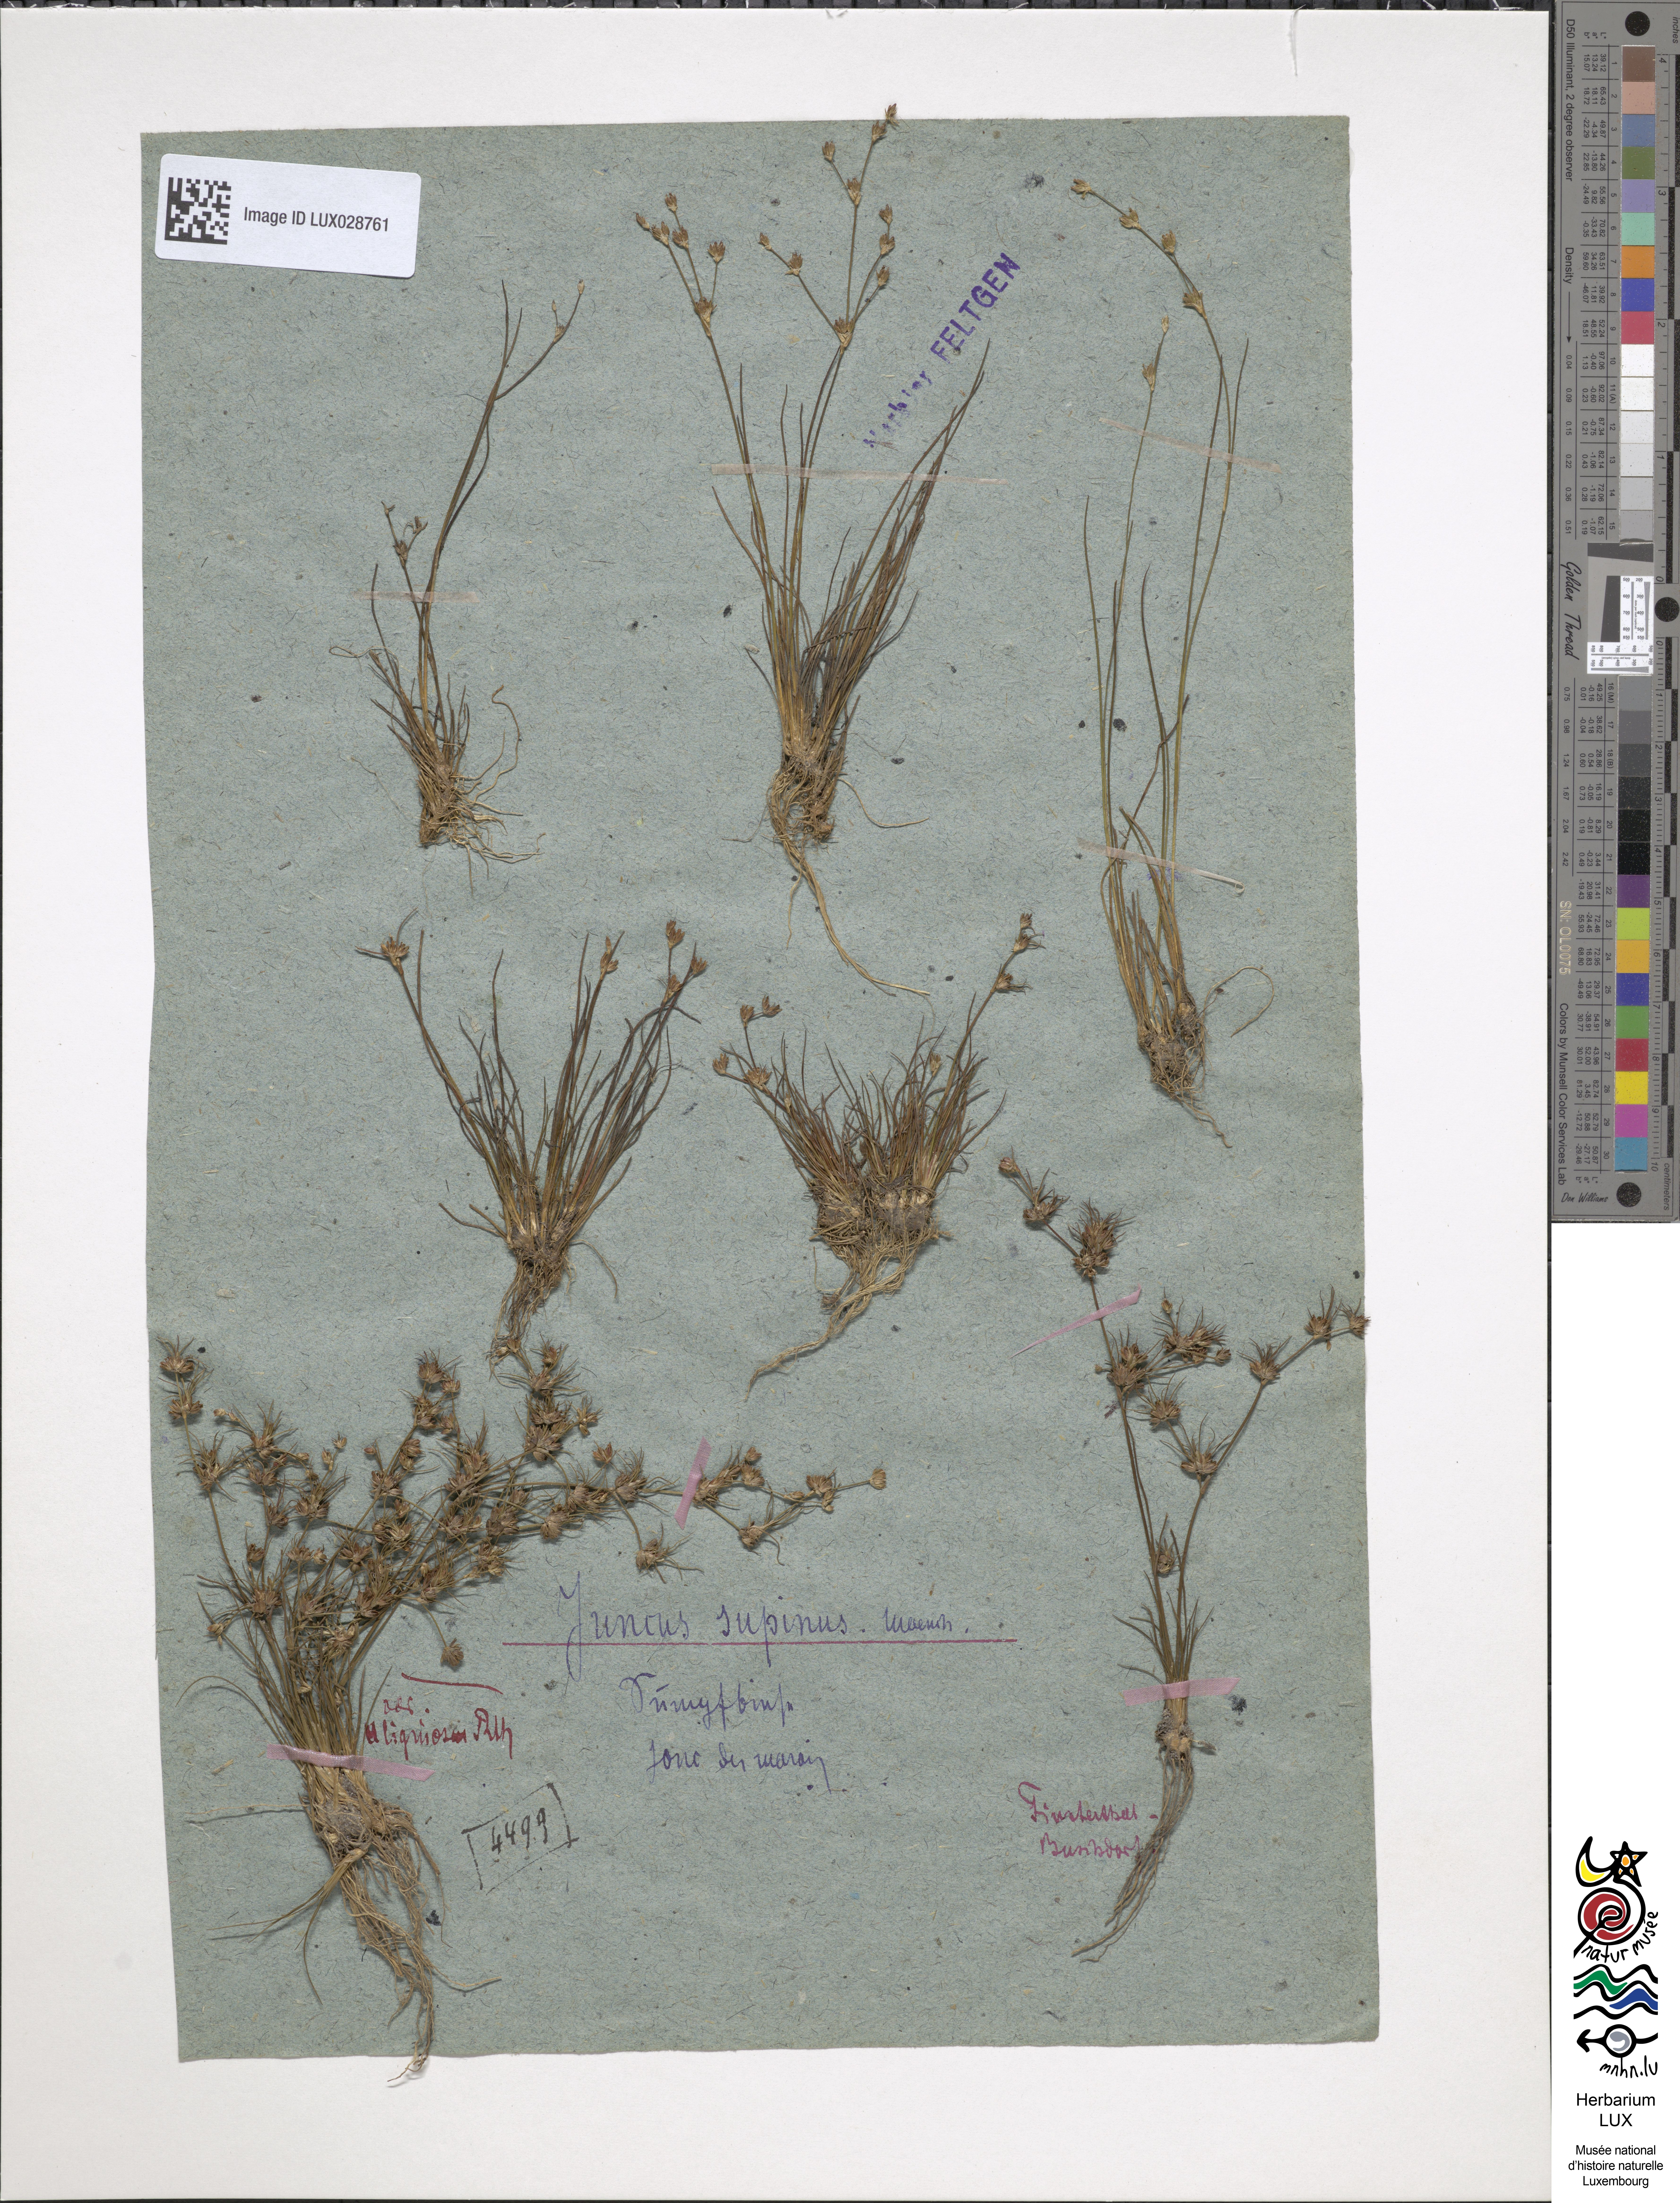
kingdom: Plantae
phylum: Tracheophyta
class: Liliopsida
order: Poales
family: Juncaceae
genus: Juncus
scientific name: Juncus bulbosus
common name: Bulbous rush
